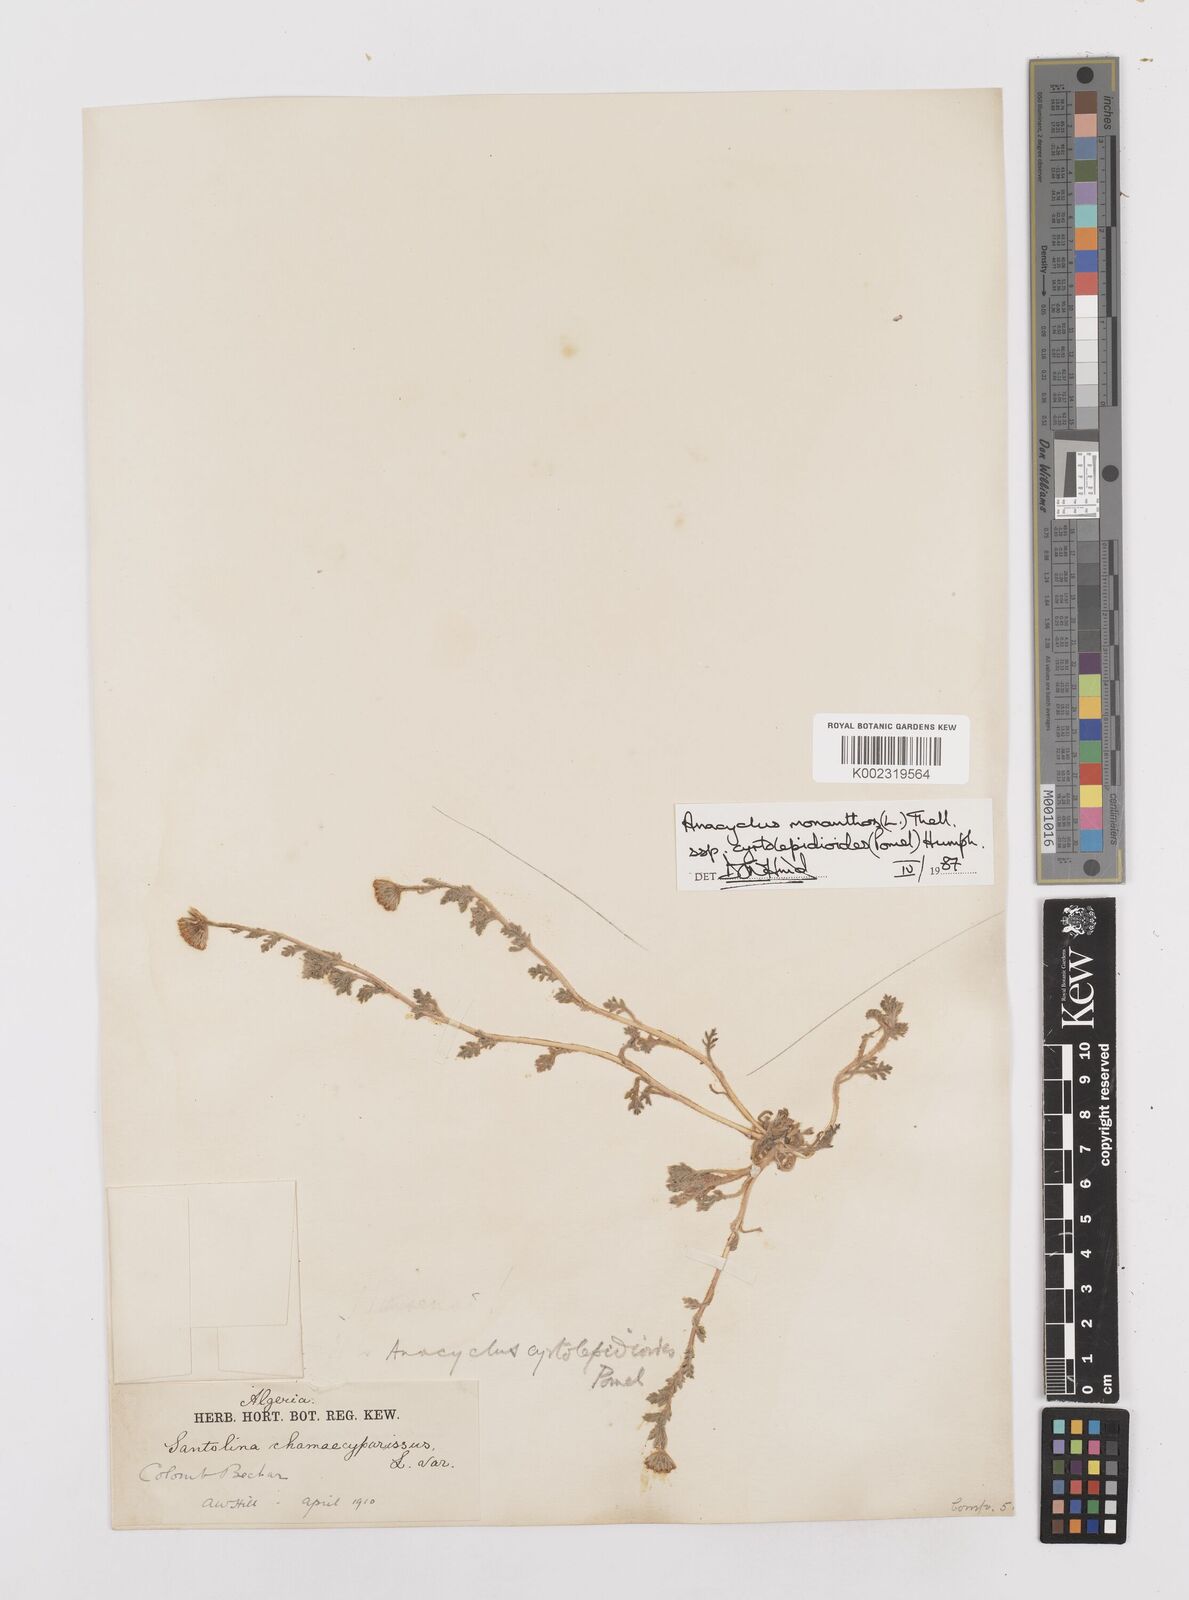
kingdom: Plantae
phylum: Tracheophyta
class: Magnoliopsida
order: Asterales
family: Asteraceae
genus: Anacyclus
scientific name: Anacyclus monanthos
